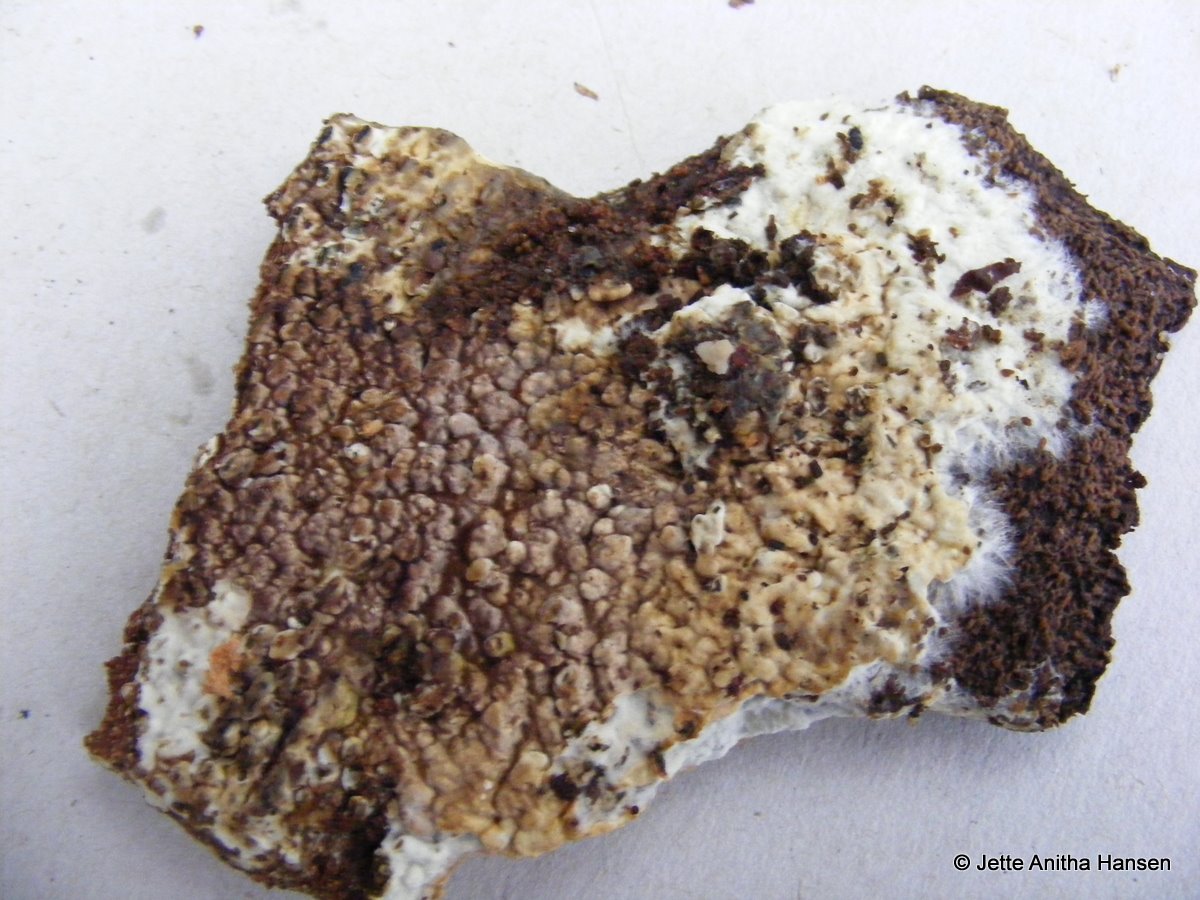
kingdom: Fungi
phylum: Basidiomycota
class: Agaricomycetes
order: Boletales
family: Coniophoraceae
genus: Coniophora
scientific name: Coniophora puteana
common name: gul tømmersvamp
